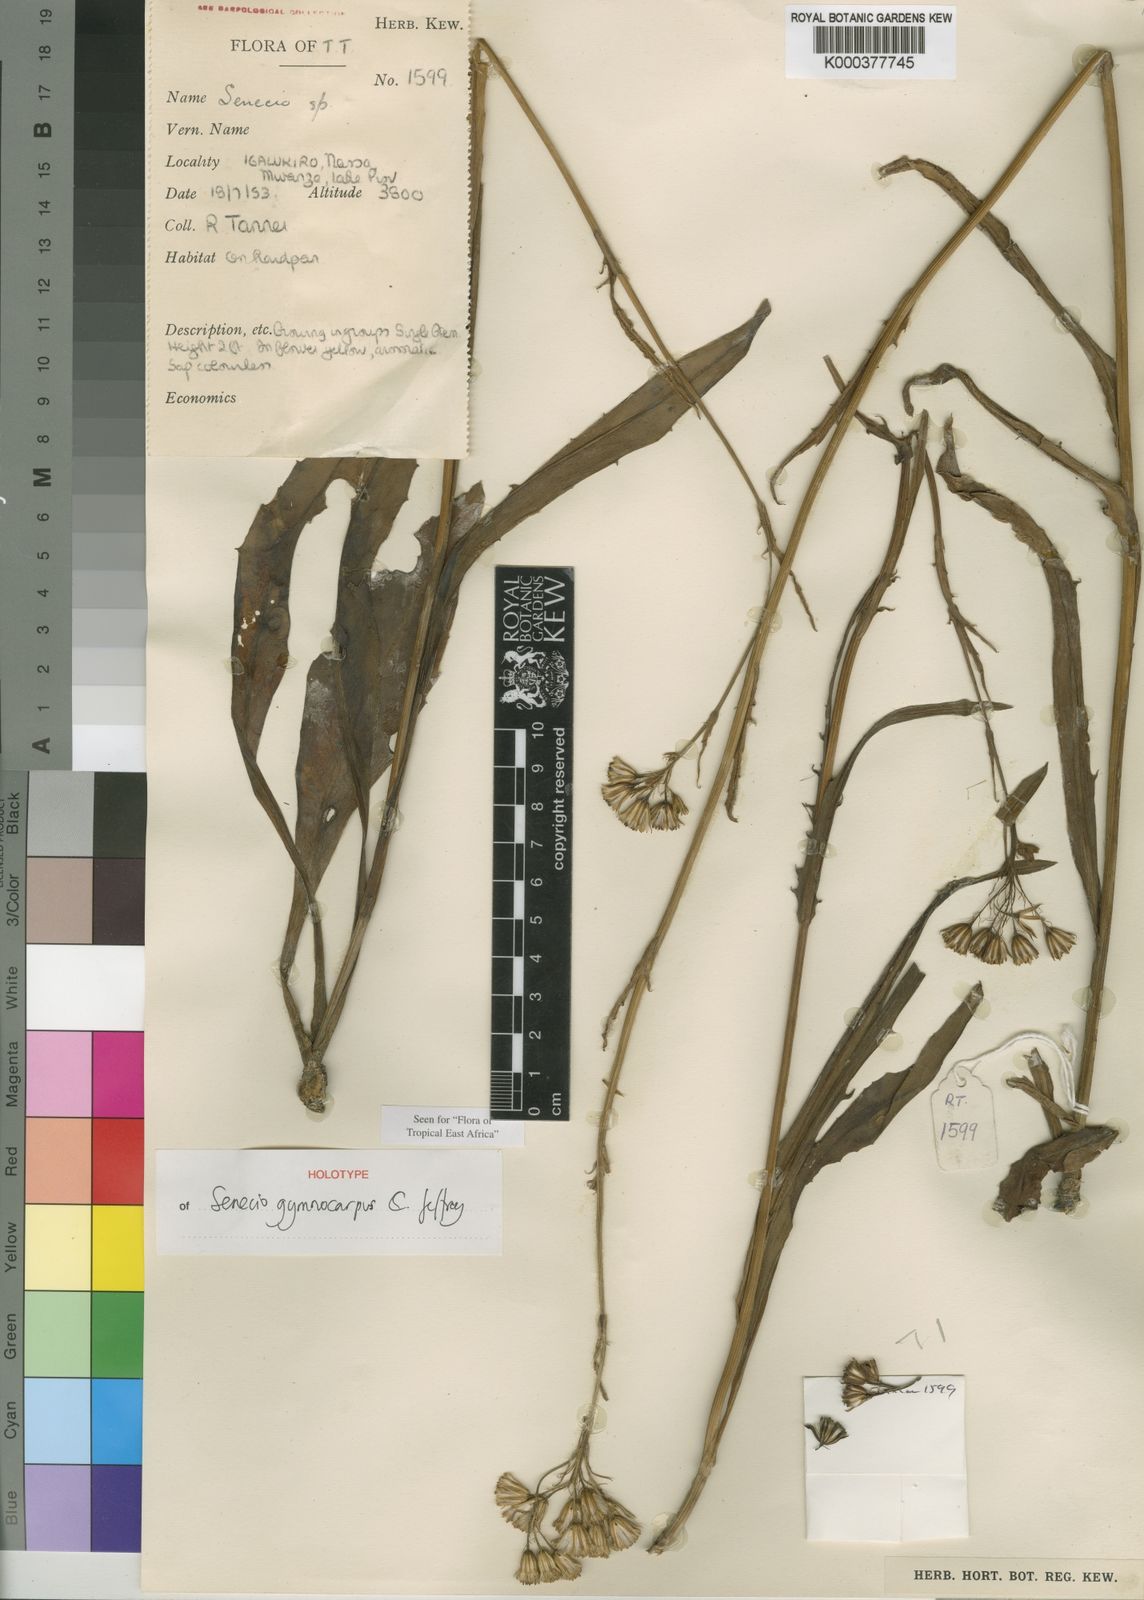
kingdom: Plantae
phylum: Tracheophyta
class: Magnoliopsida
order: Asterales
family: Asteraceae
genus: Senecio
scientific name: Senecio
